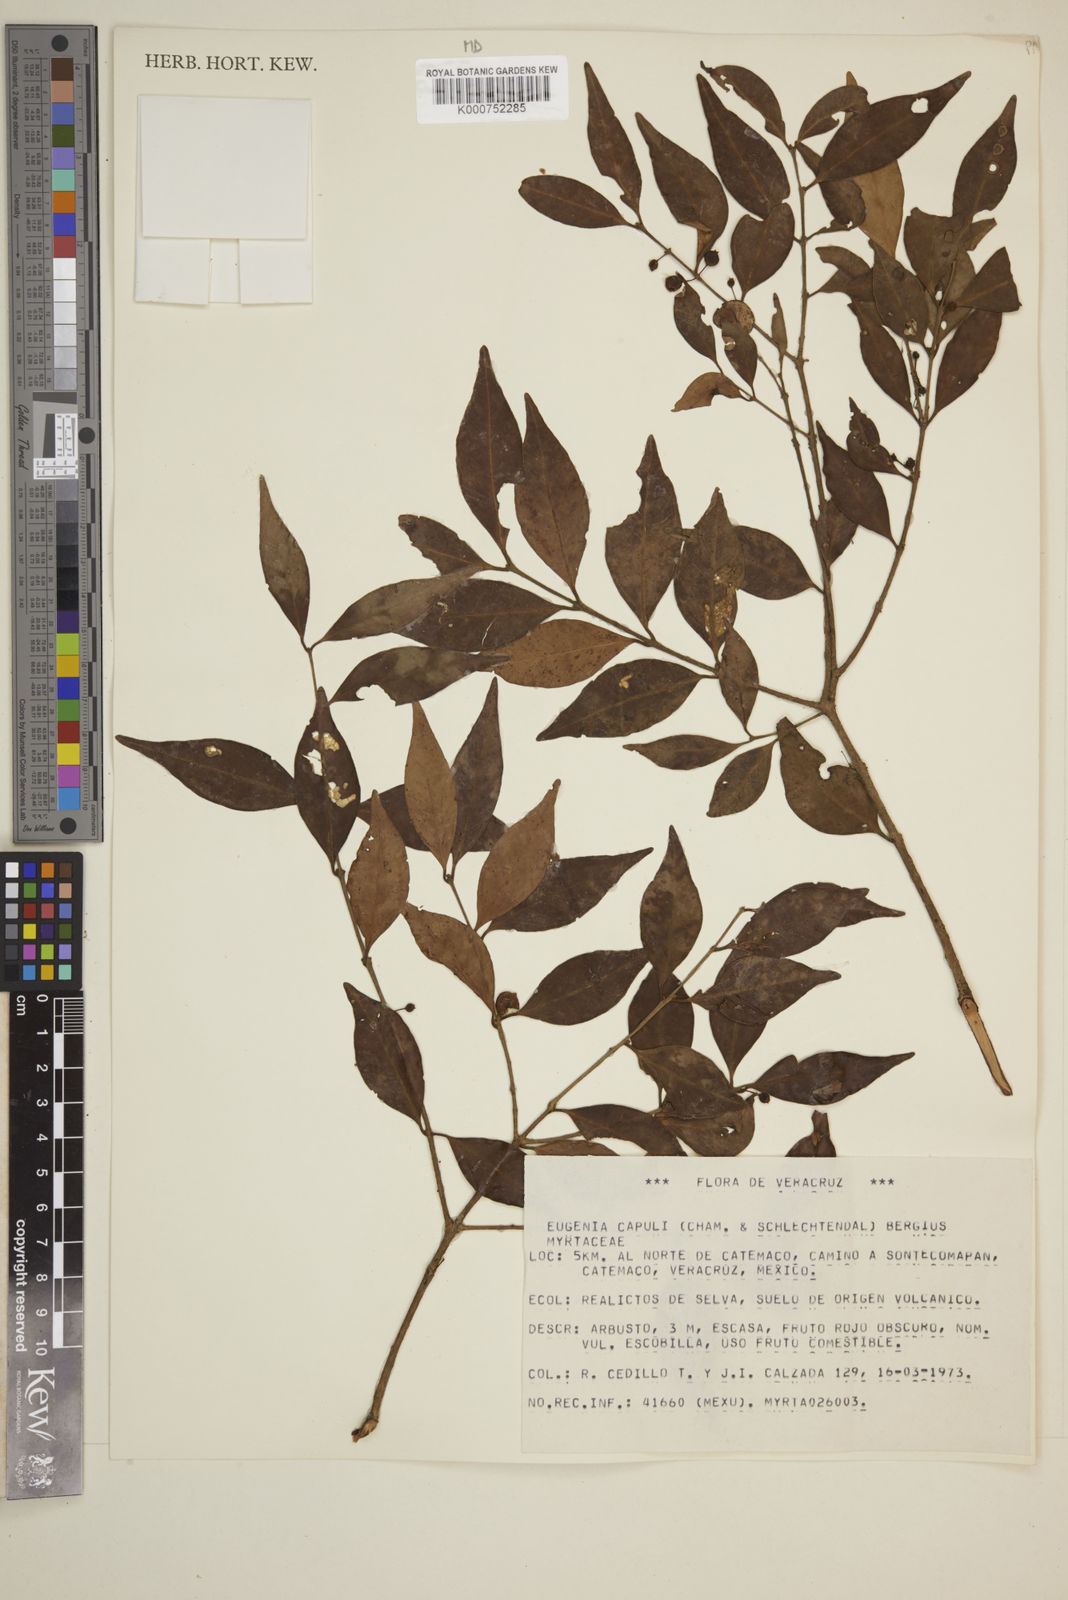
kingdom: Plantae
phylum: Tracheophyta
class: Magnoliopsida
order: Myrtales
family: Myrtaceae
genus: Eugenia
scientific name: Eugenia capuli
